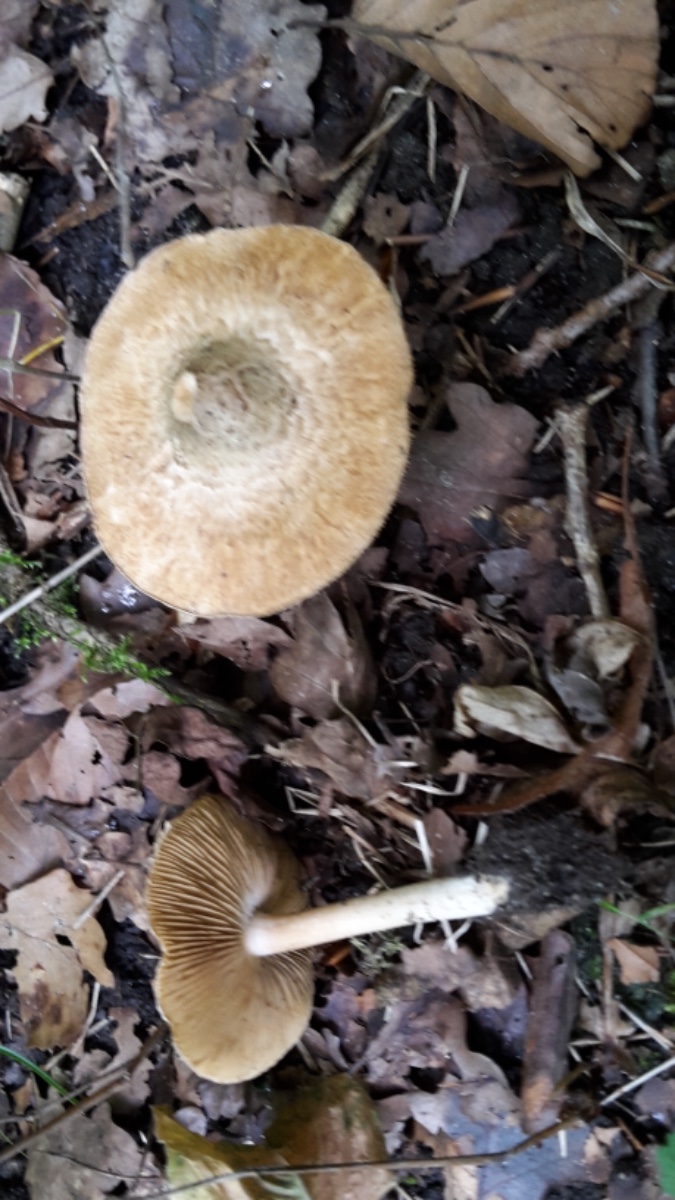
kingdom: Fungi
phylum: Basidiomycota
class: Agaricomycetes
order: Agaricales
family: Inocybaceae
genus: Inocybe
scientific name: Inocybe corydalina
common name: grønpuklet trævlhat
